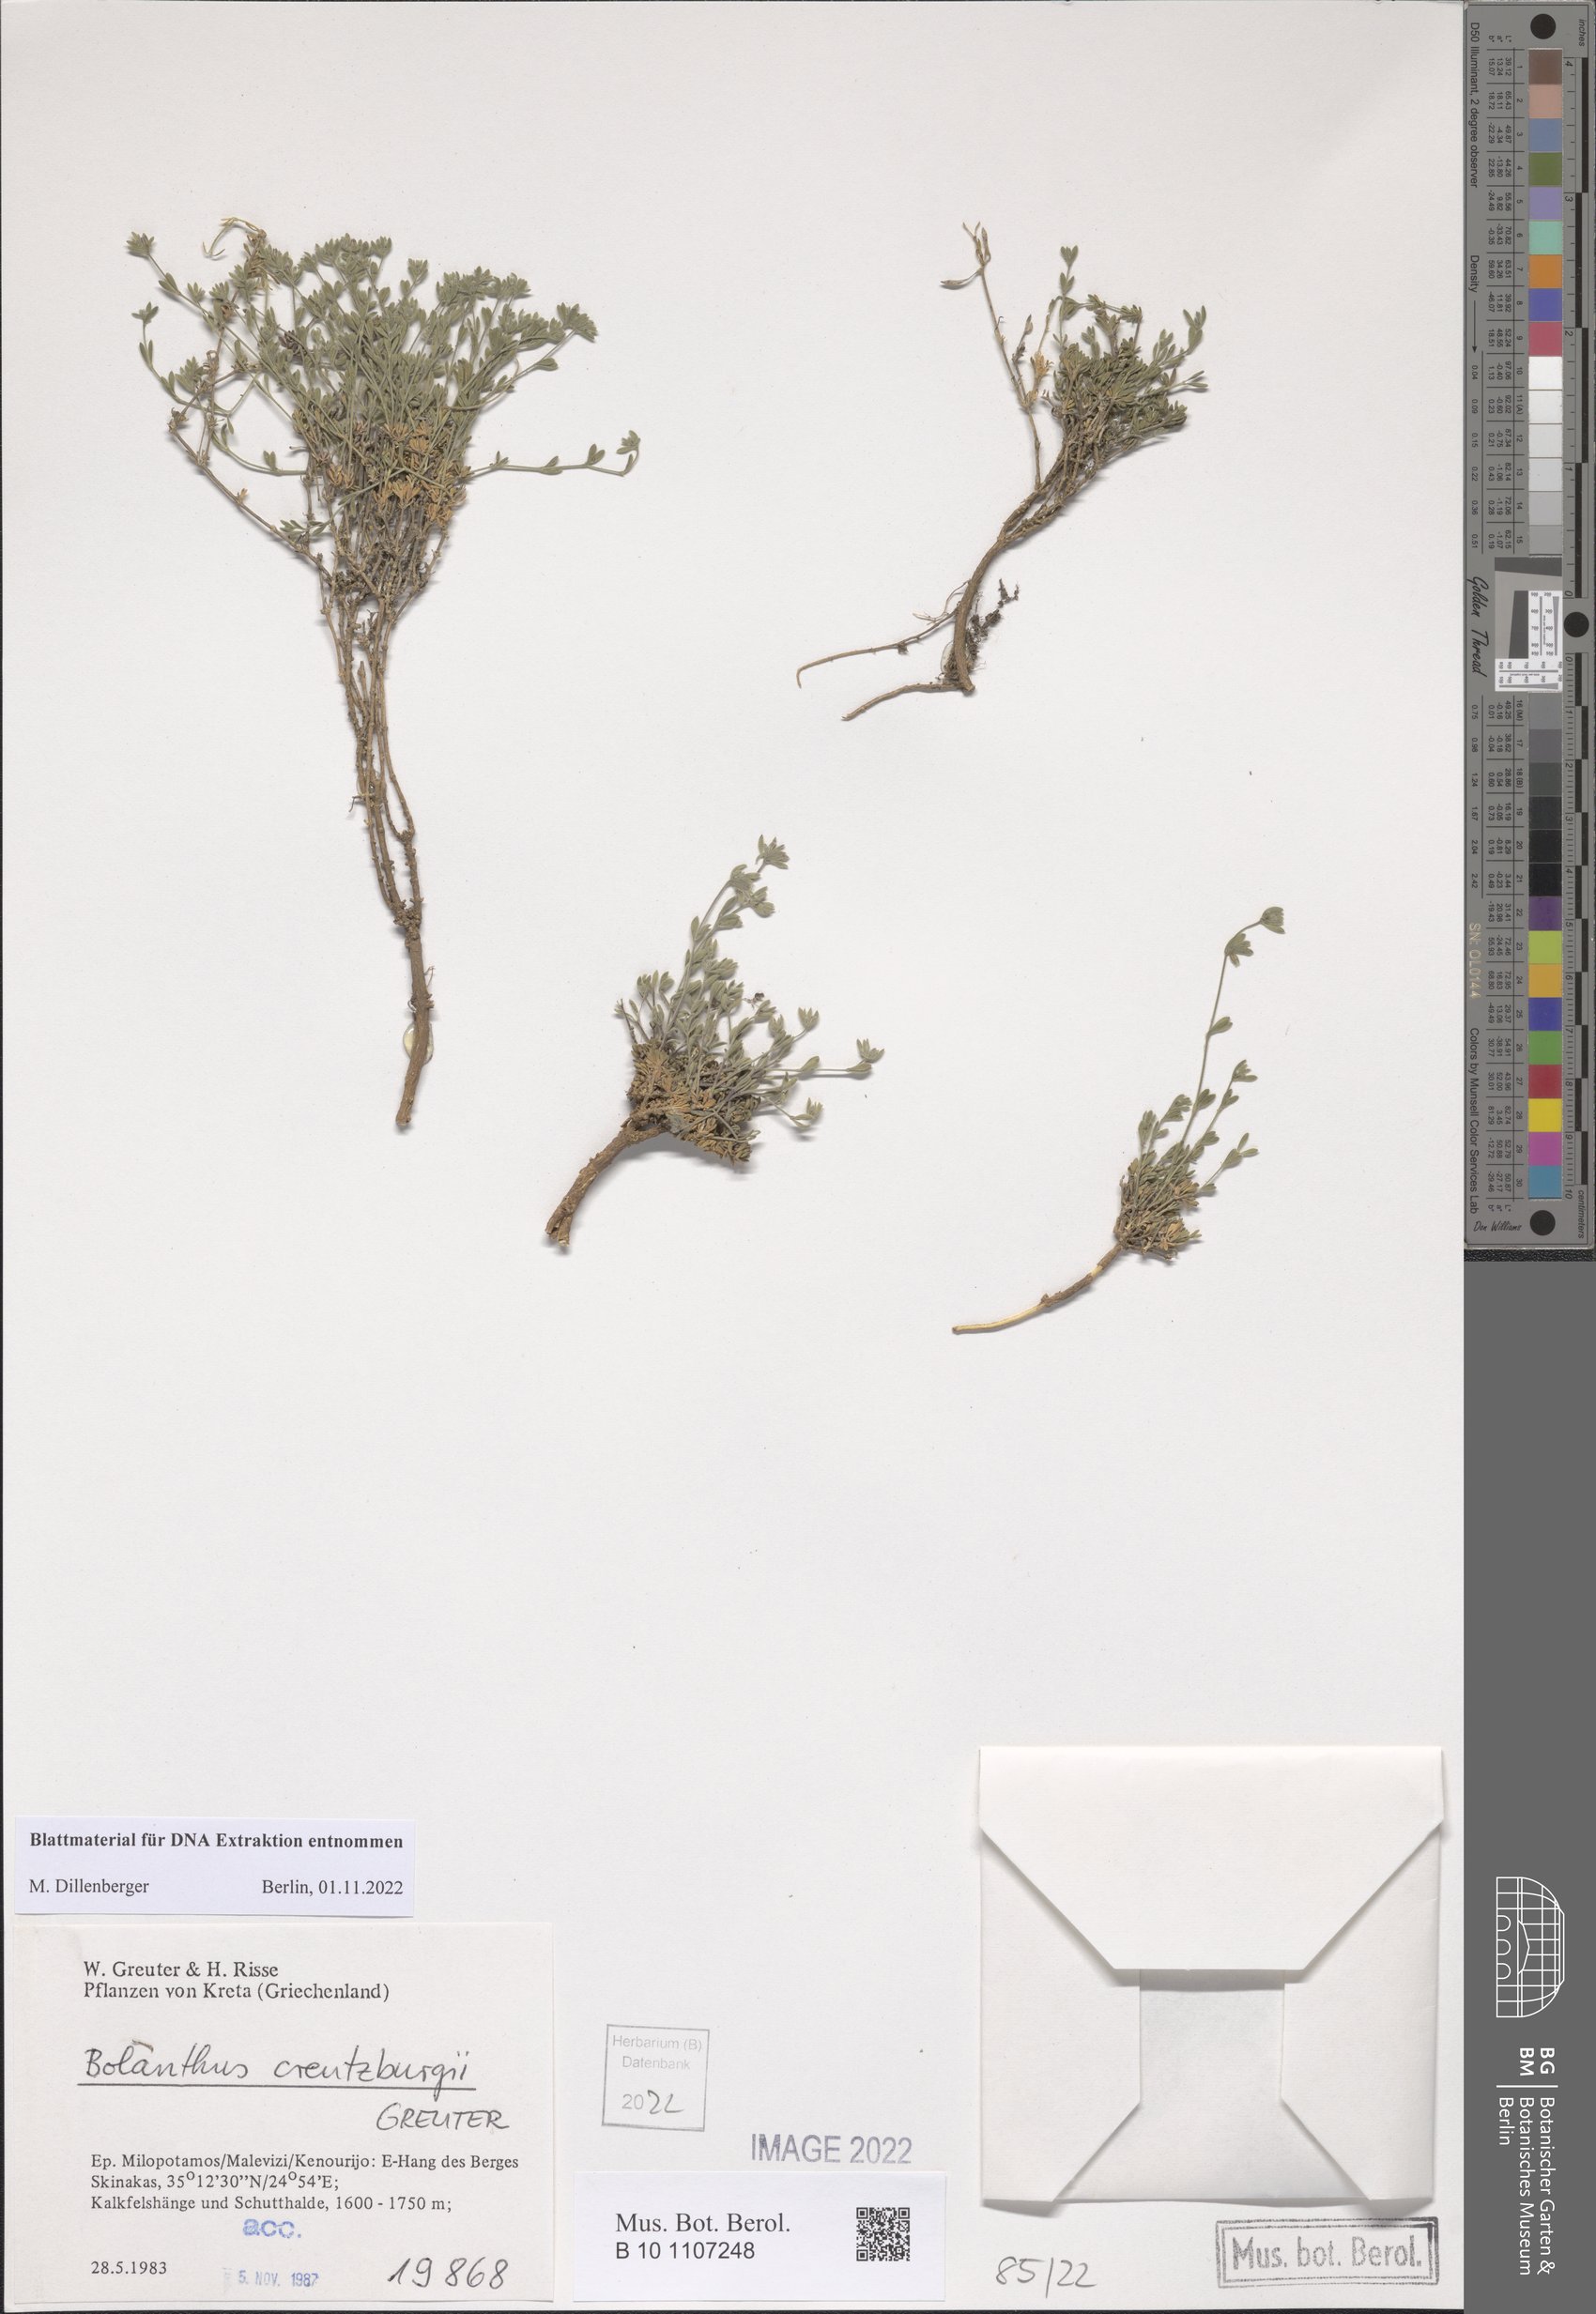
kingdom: Plantae
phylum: Tracheophyta
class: Magnoliopsida
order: Caryophyllales
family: Caryophyllaceae
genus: Graecobolanthus
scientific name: Graecobolanthus creutzburgii
